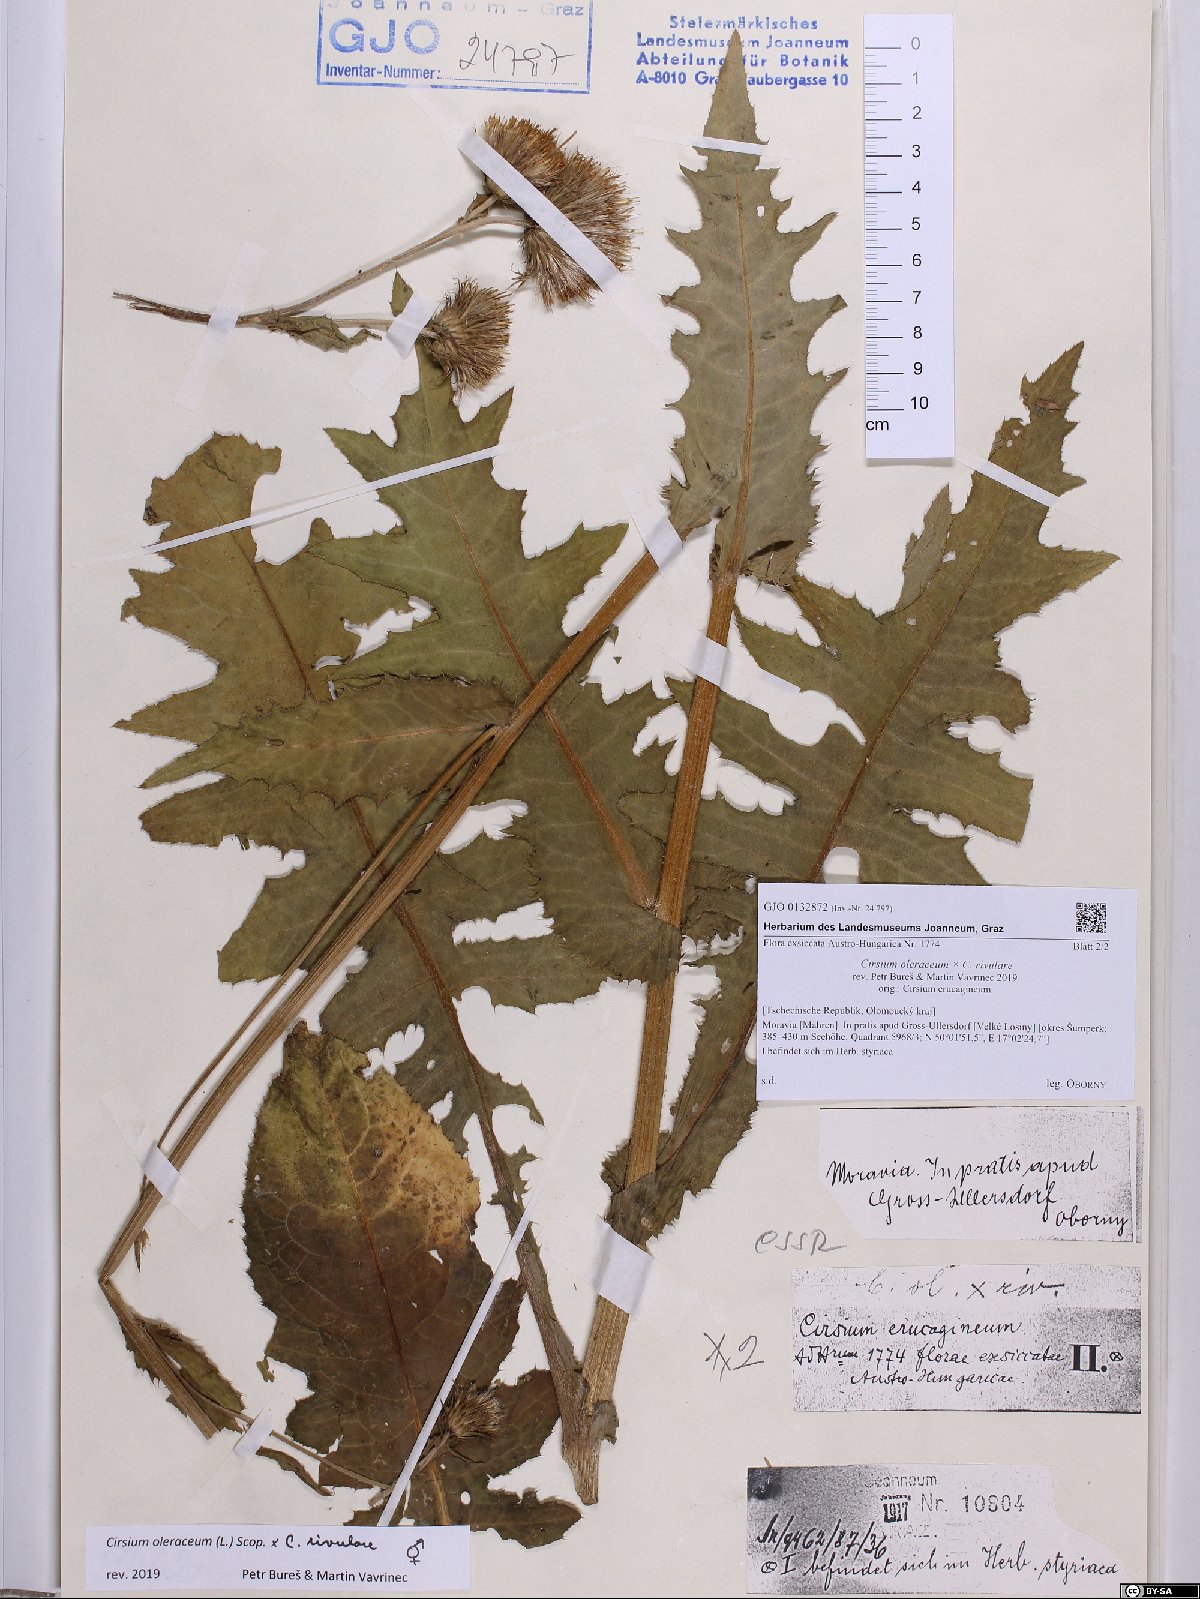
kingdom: Plantae
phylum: Tracheophyta
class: Magnoliopsida
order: Asterales
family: Asteraceae
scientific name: Asteraceae
